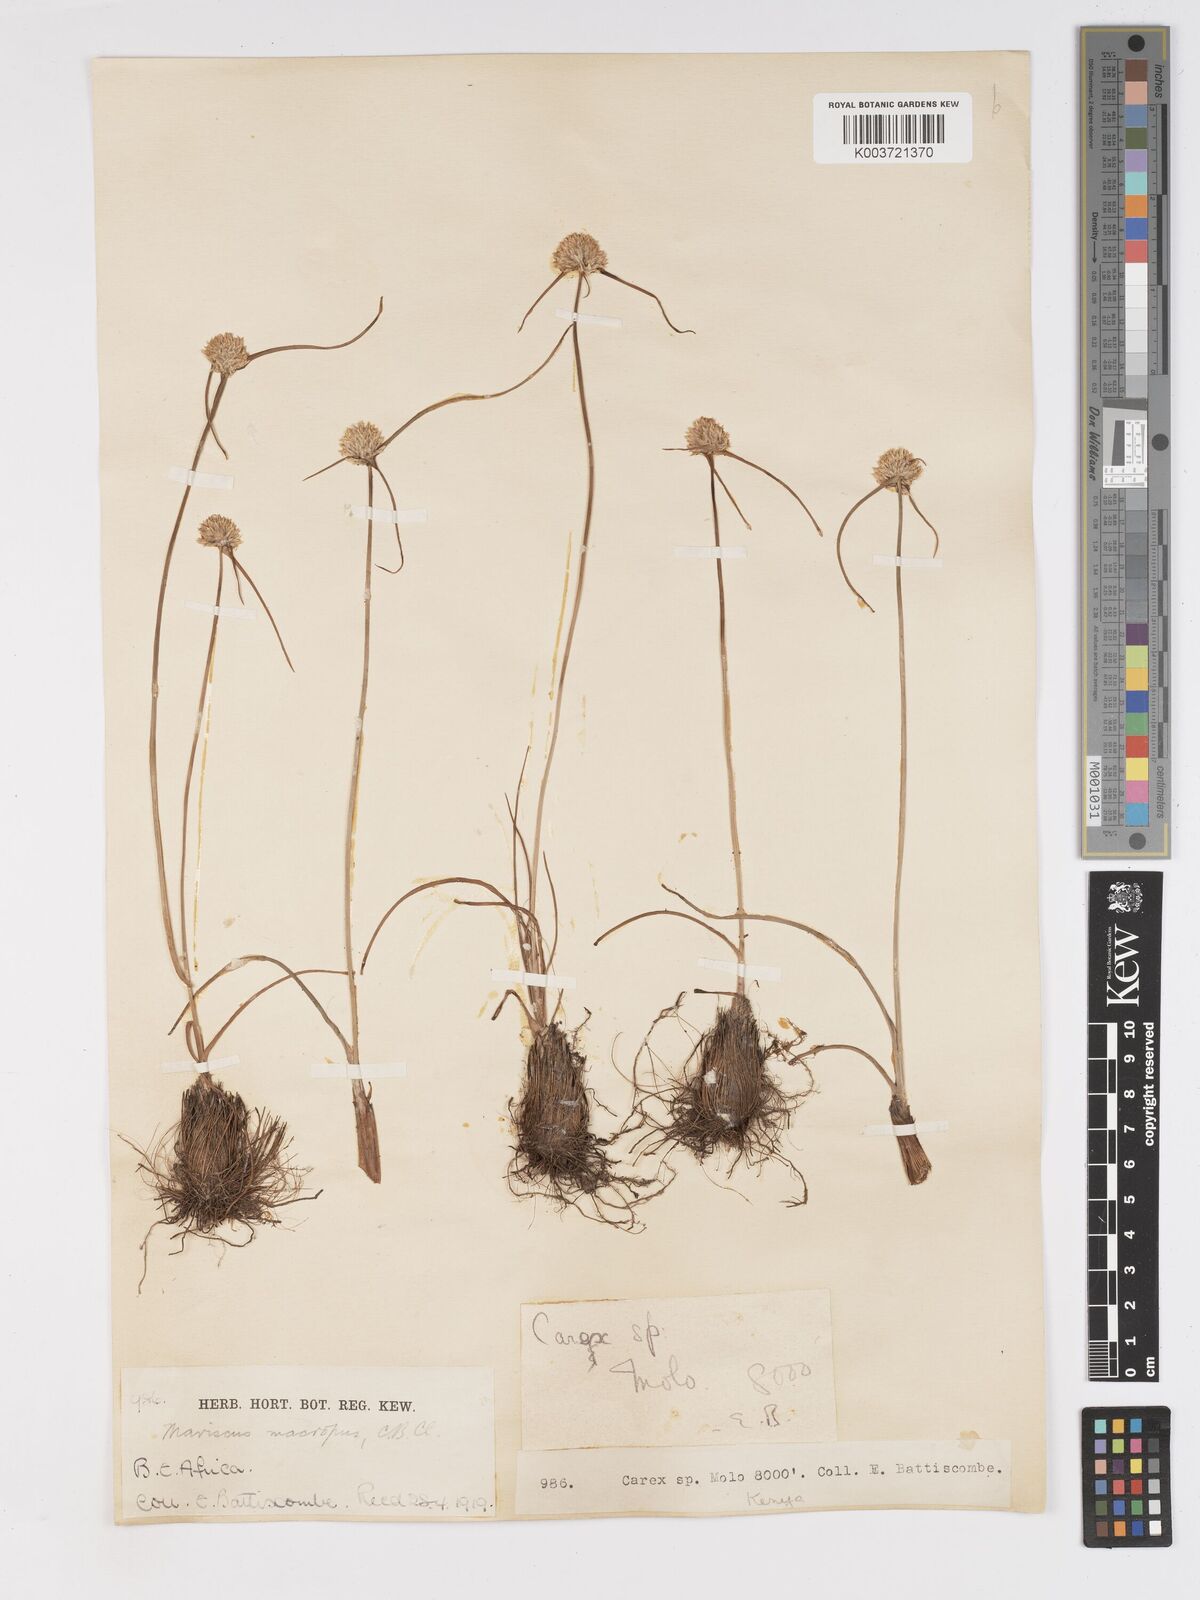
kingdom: Plantae
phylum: Tracheophyta
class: Liliopsida
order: Poales
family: Cyperaceae
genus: Cyperus
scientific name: Cyperus mollipes
